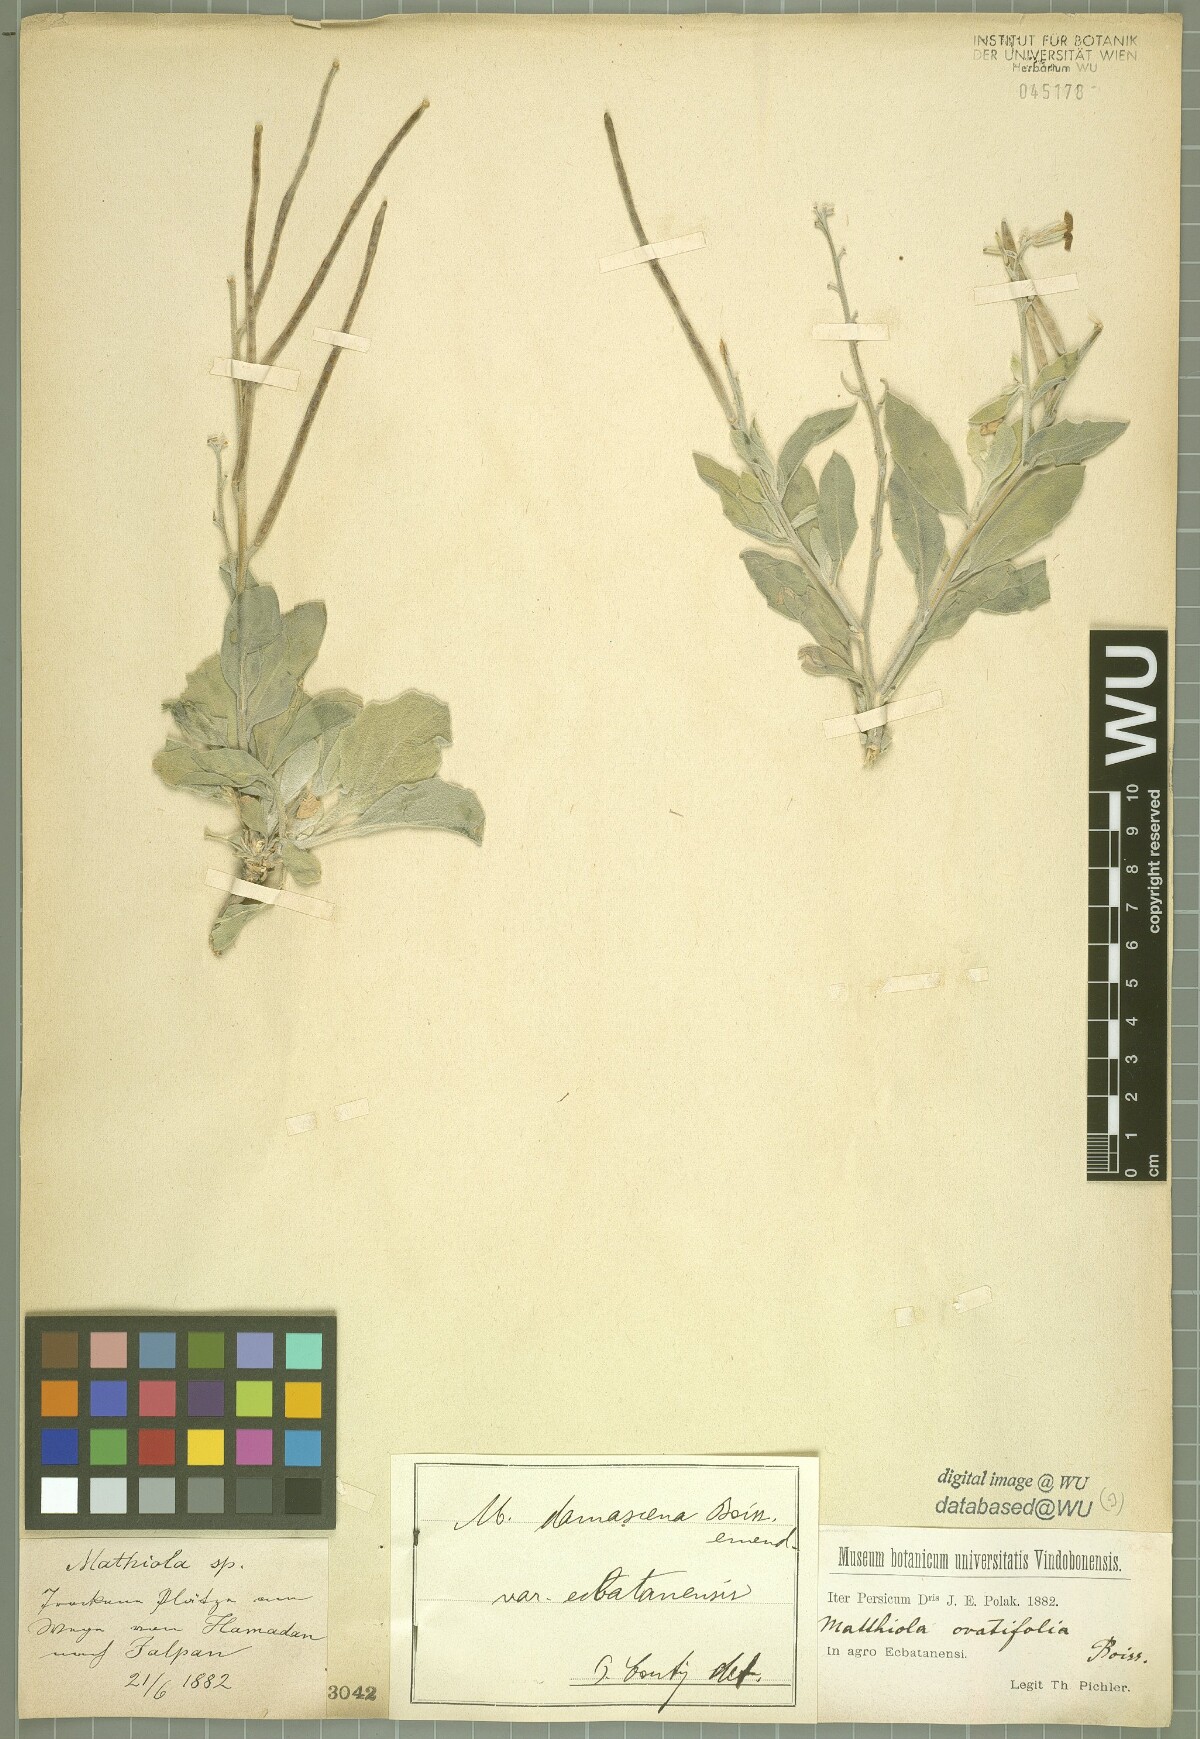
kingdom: Plantae
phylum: Tracheophyta
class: Magnoliopsida
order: Brassicales
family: Brassicaceae
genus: Matthiola
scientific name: Matthiola ovatifolia
